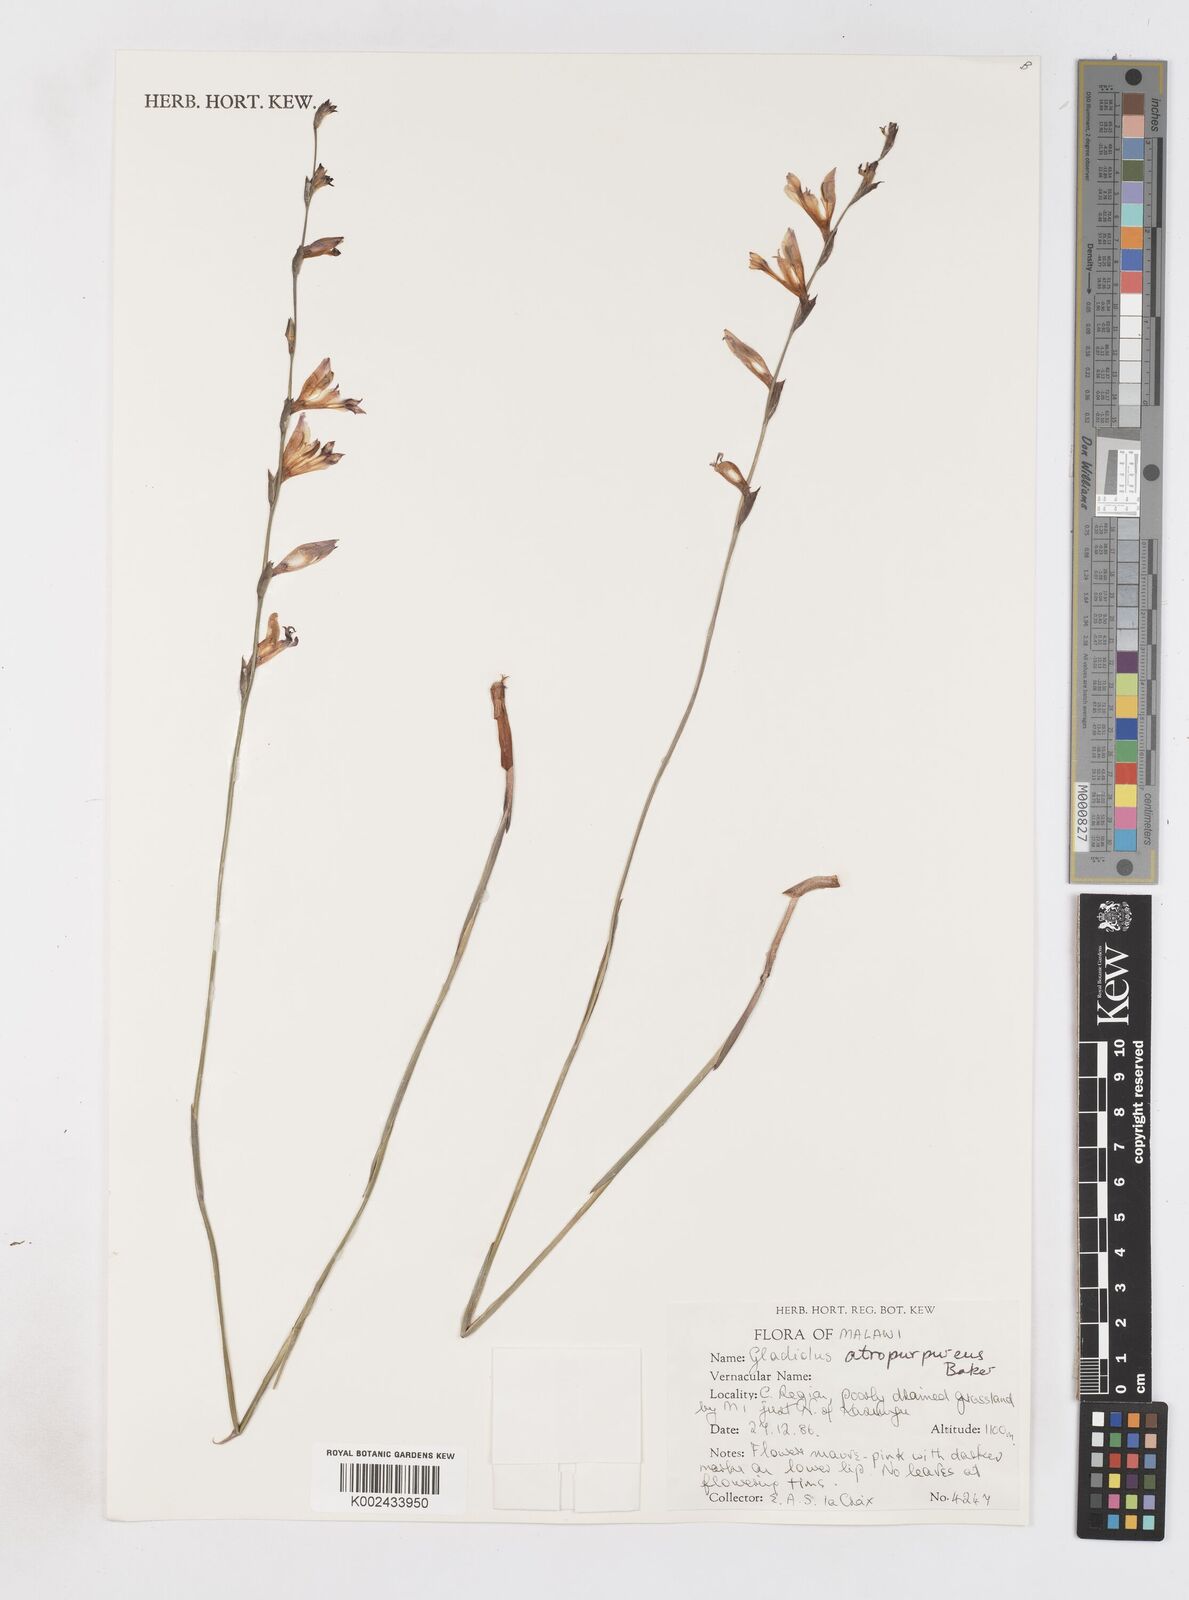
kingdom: Plantae
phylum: Tracheophyta
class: Liliopsida
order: Asparagales
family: Iridaceae
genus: Gladiolus
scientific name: Gladiolus atropurpureus
